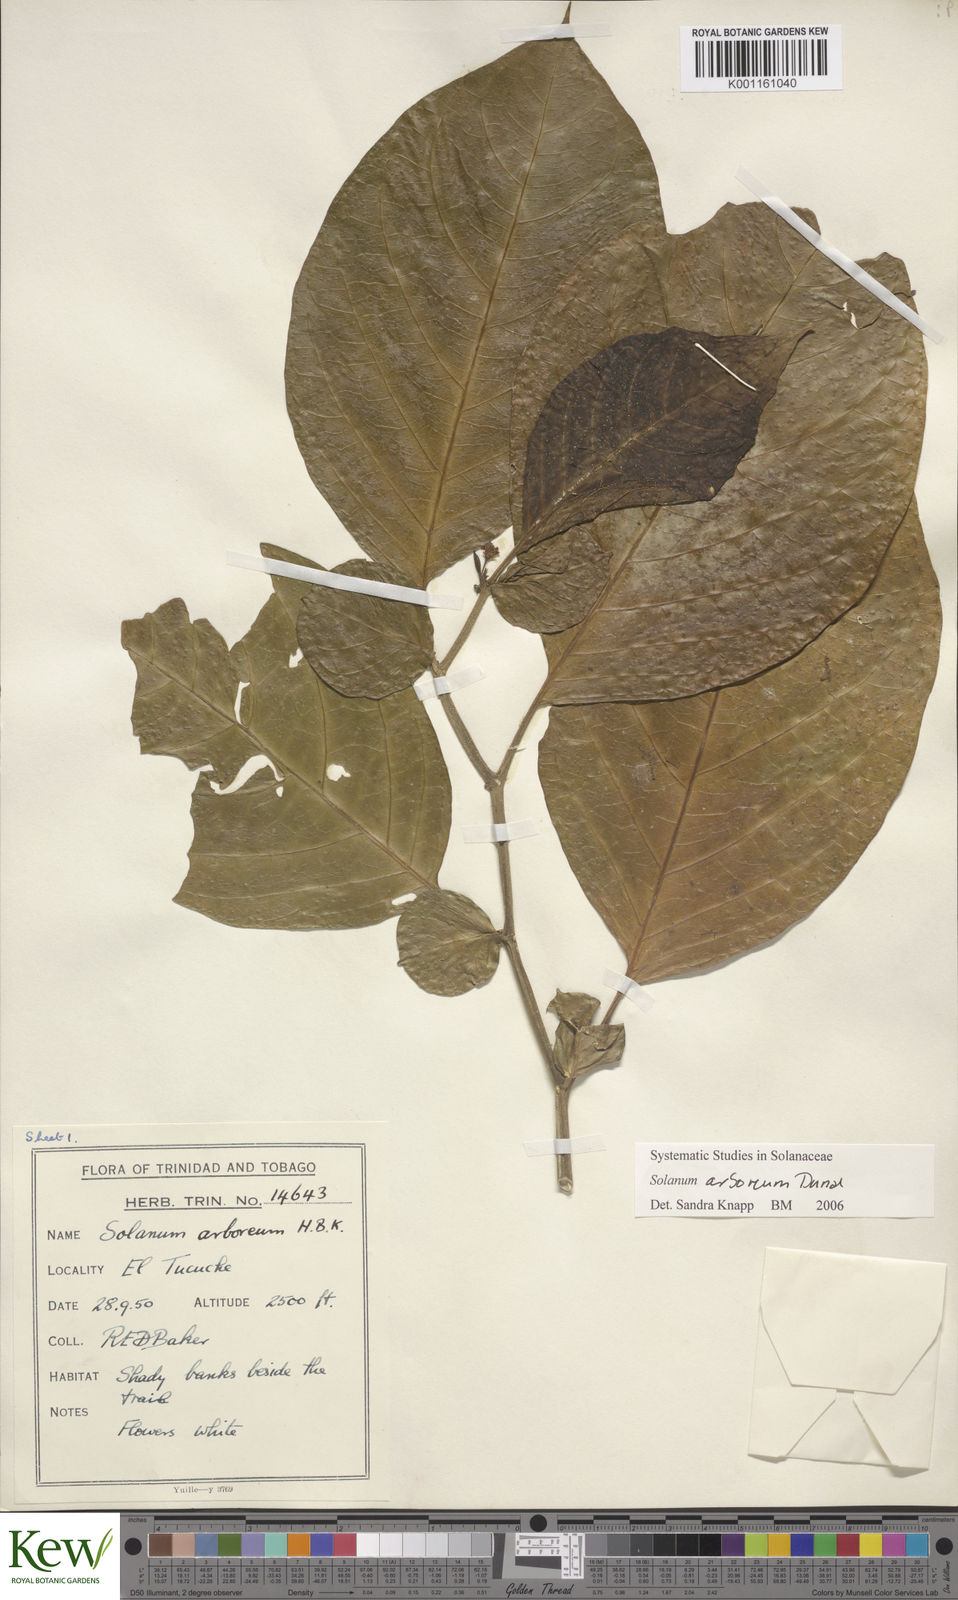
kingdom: Plantae
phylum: Tracheophyta
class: Magnoliopsida
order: Solanales
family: Solanaceae
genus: Solanum
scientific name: Solanum arboreum
